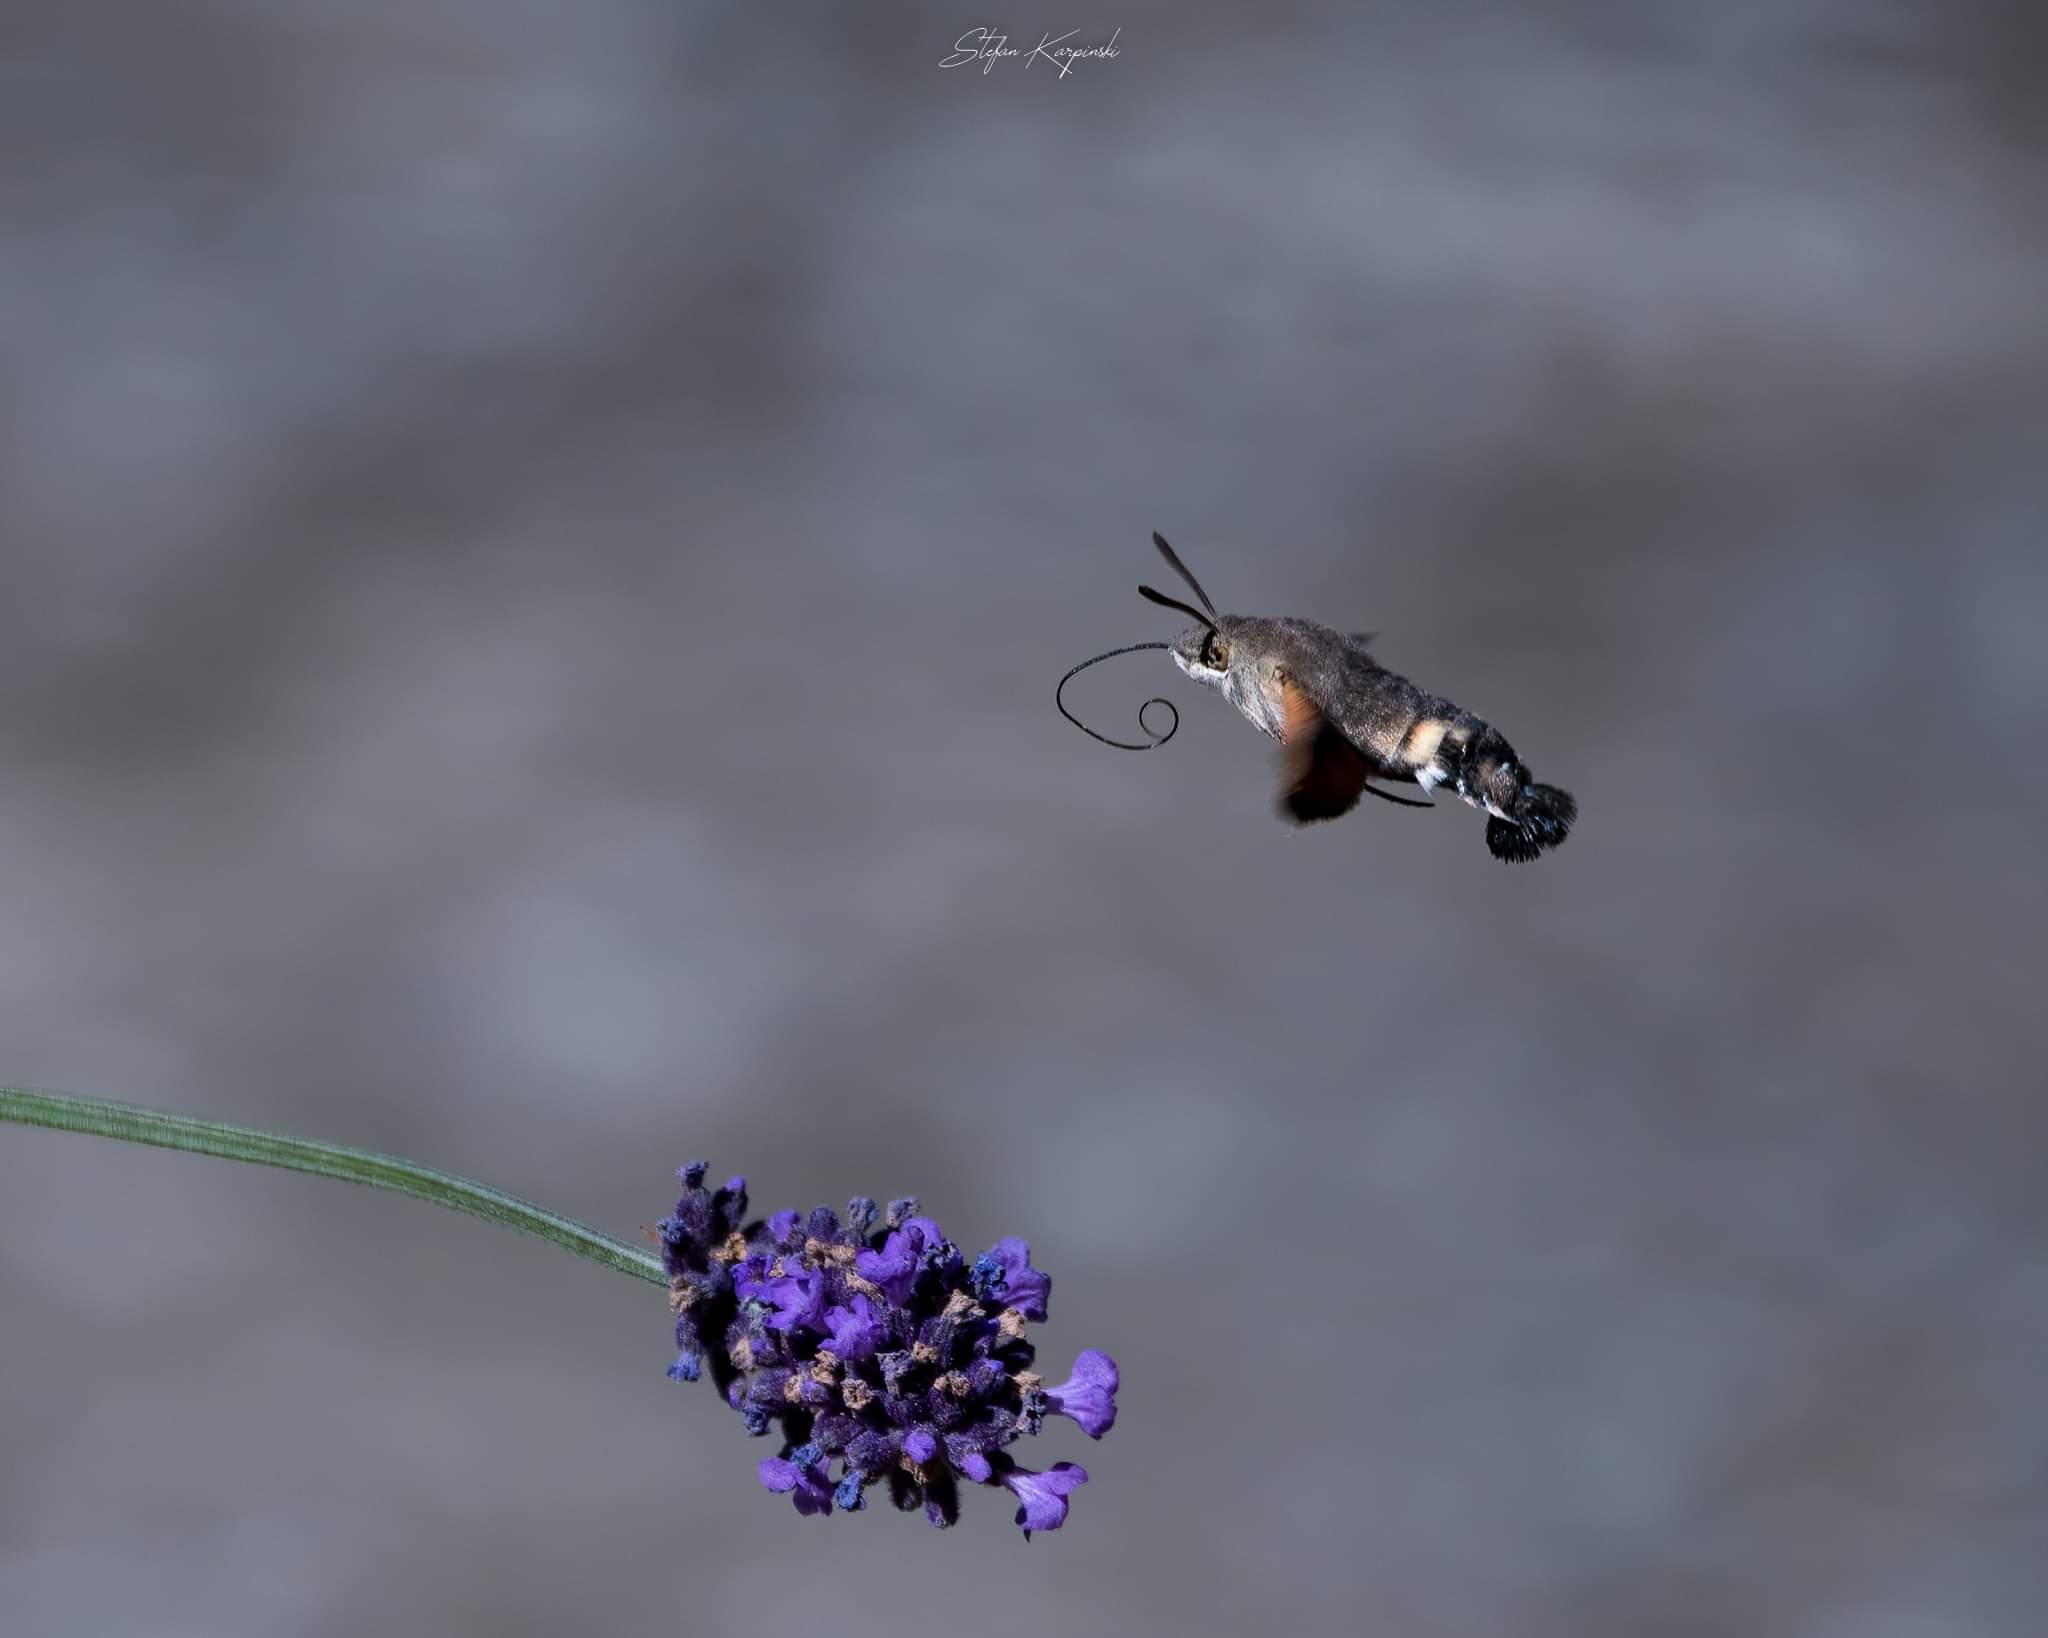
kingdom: Animalia
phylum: Arthropoda
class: Insecta
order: Lepidoptera
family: Sphingidae
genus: Macroglossum
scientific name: Macroglossum stellatarum
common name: Duehale
